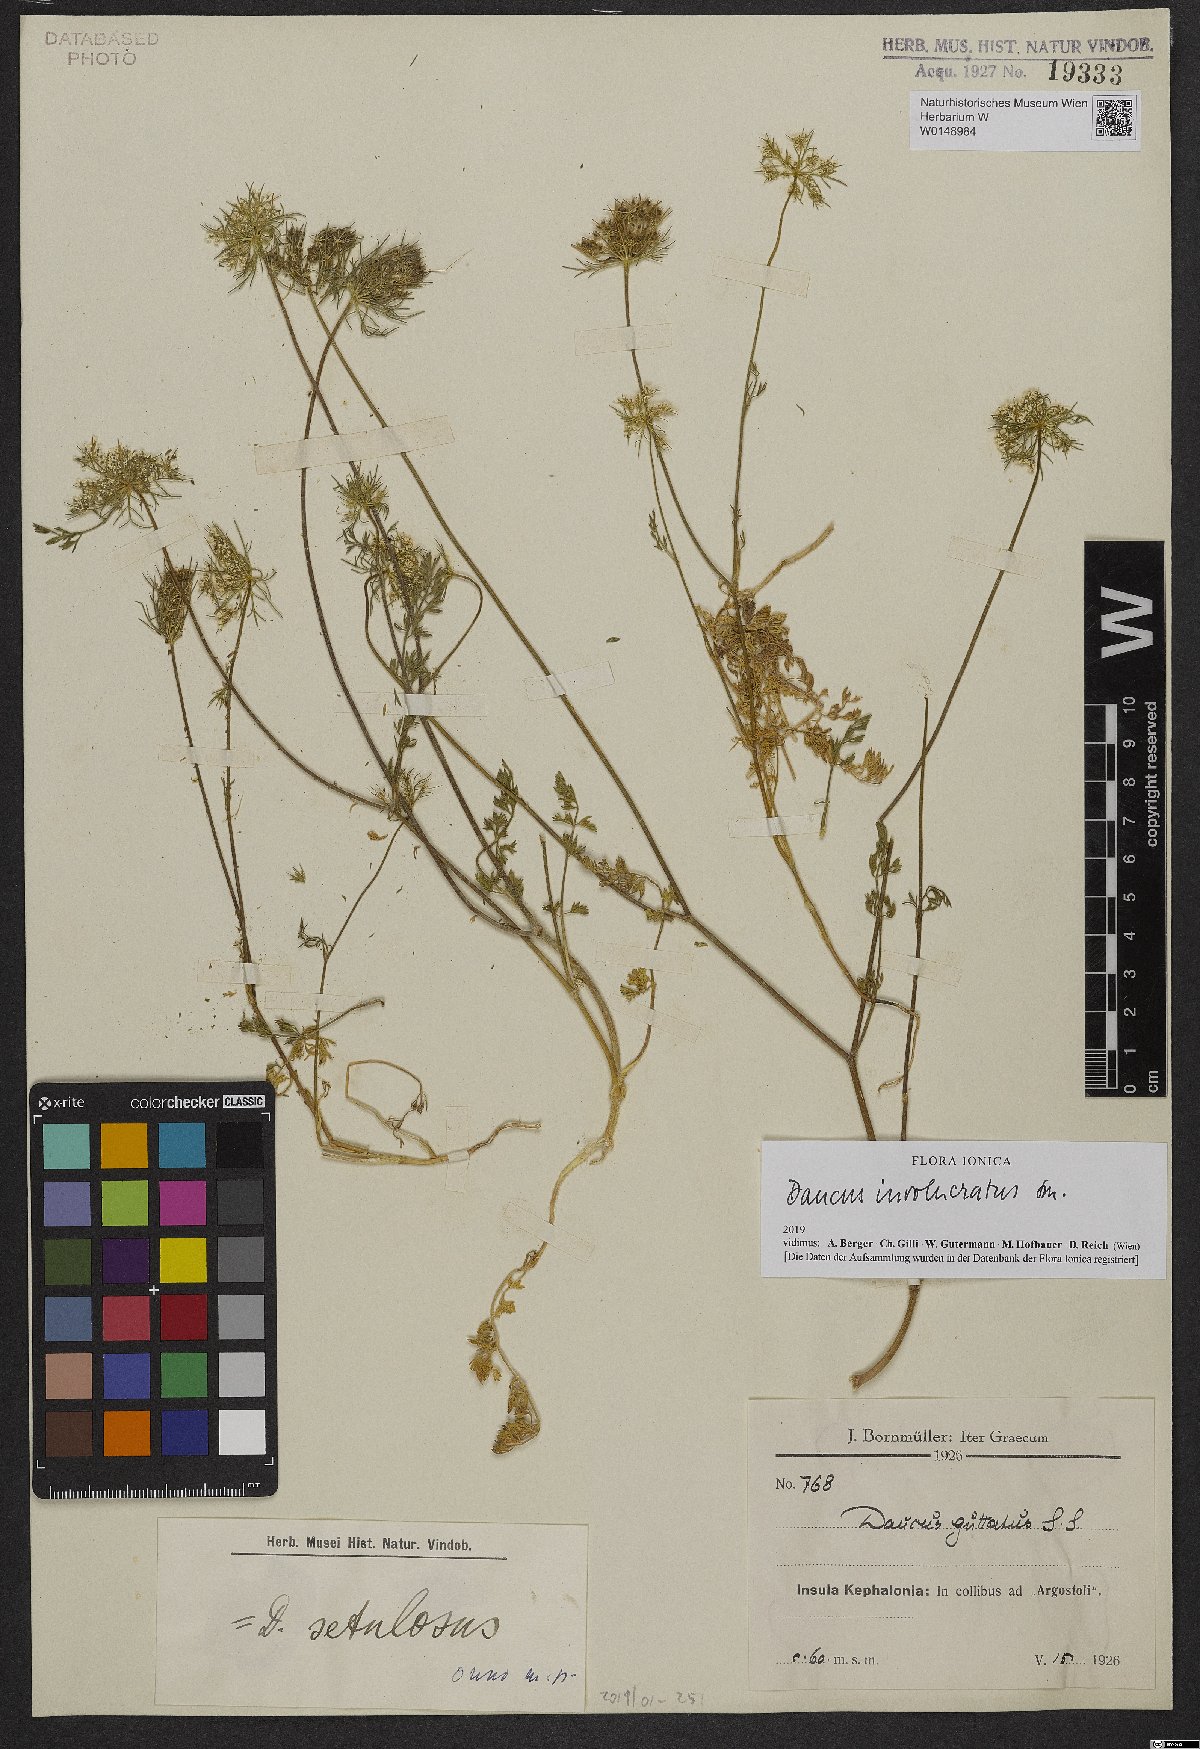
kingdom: Plantae
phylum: Tracheophyta
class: Magnoliopsida
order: Apiales
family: Apiaceae
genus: Daucus
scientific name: Daucus involucratus
